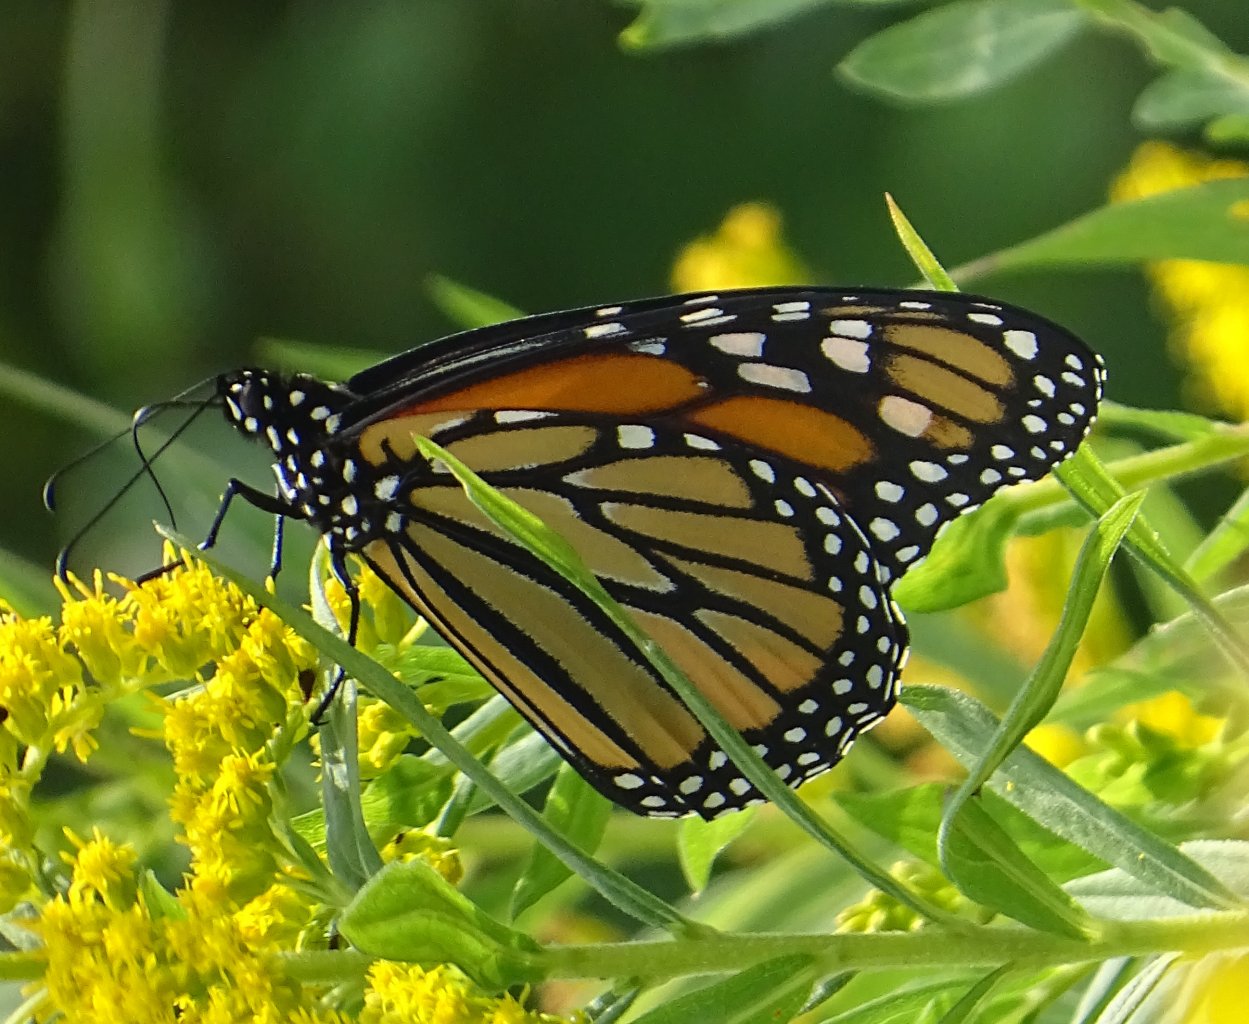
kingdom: Animalia
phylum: Arthropoda
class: Insecta
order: Lepidoptera
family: Nymphalidae
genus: Danaus
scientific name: Danaus plexippus
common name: Monarch
